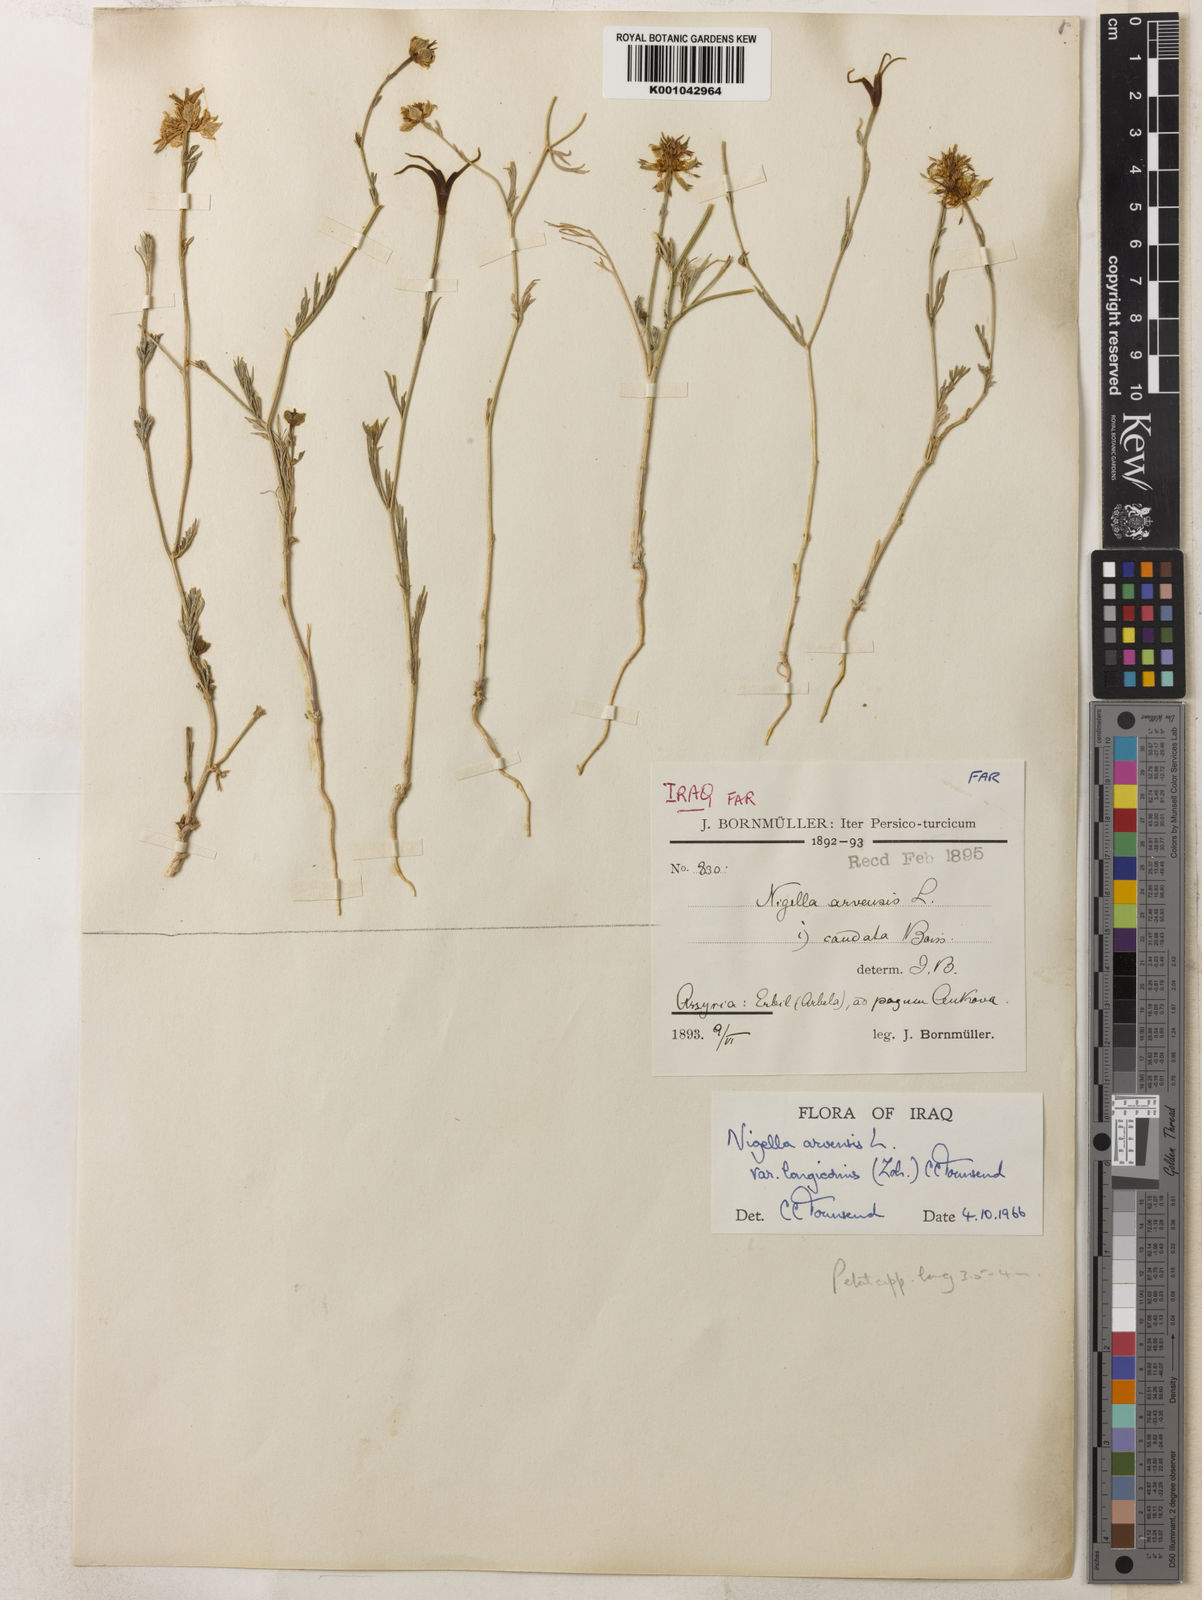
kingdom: Plantae
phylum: Tracheophyta
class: Magnoliopsida
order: Ranunculales
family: Ranunculaceae
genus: Nigella
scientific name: Nigella arvensis
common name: Wild fennel-flower
